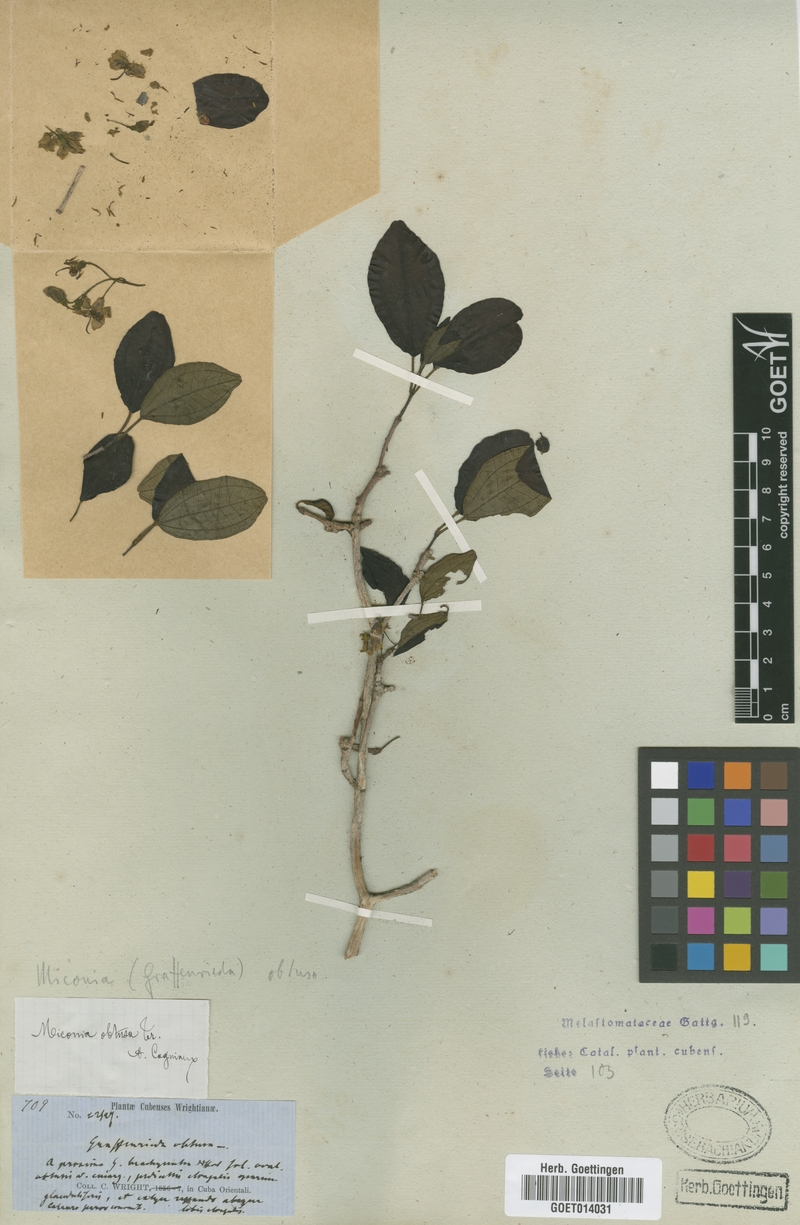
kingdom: Plantae
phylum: Tracheophyta
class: Magnoliopsida
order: Myrtales
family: Melastomataceae
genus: Miconia
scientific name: Miconia obtusa
